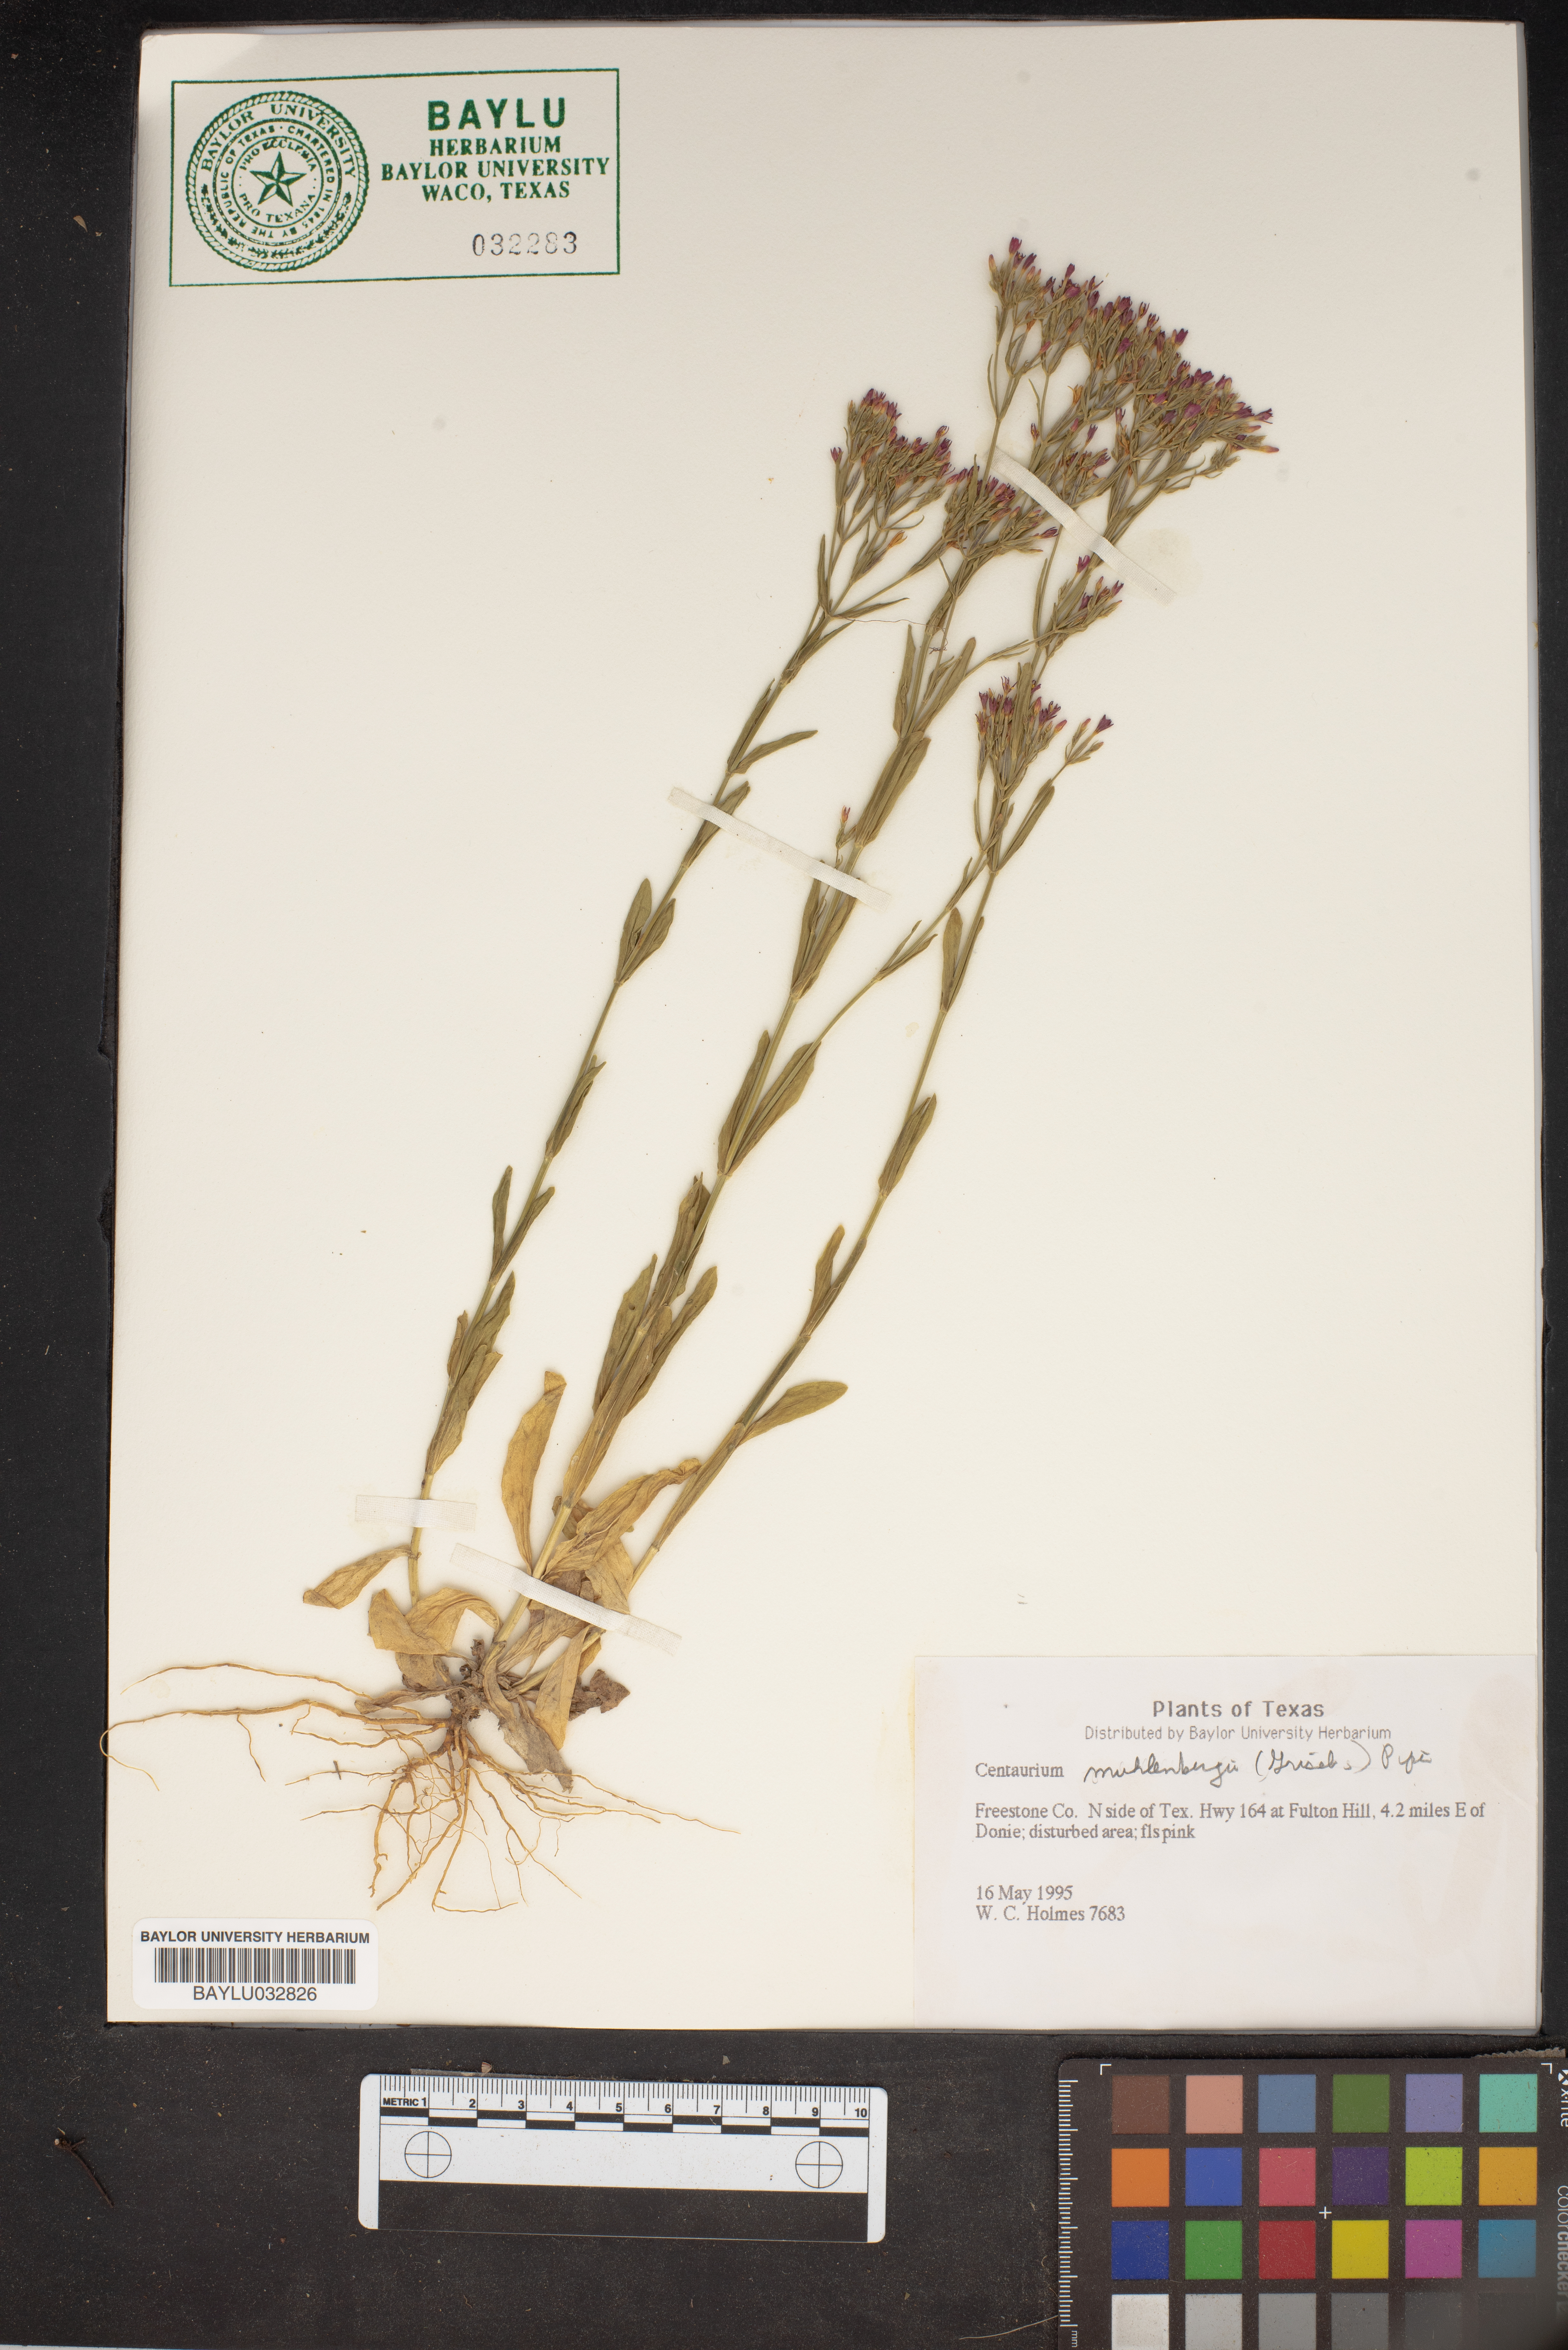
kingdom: Plantae
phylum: Tracheophyta
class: Magnoliopsida
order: Gentianales
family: Gentianaceae
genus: Zeltnera
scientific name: Zeltnera muhlenbergii
